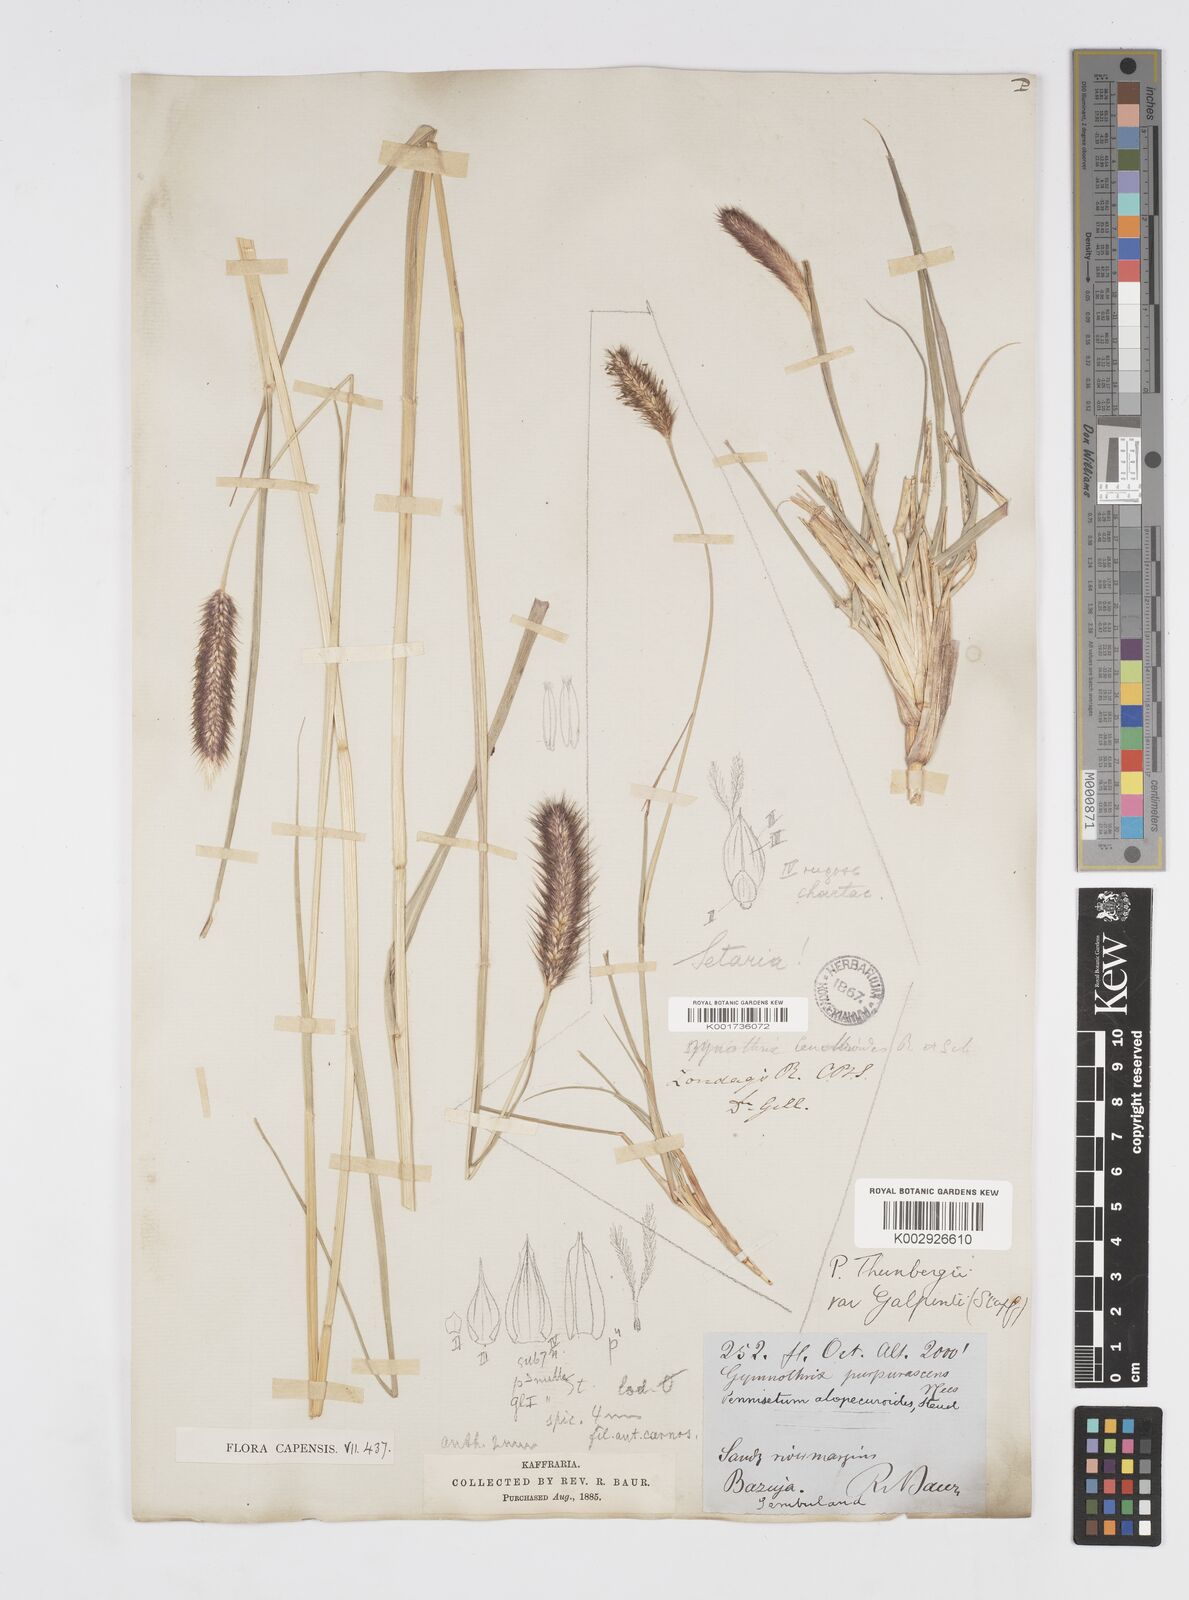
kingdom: Plantae
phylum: Tracheophyta
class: Liliopsida
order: Poales
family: Poaceae
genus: Cenchrus
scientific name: Cenchrus geniculatus
